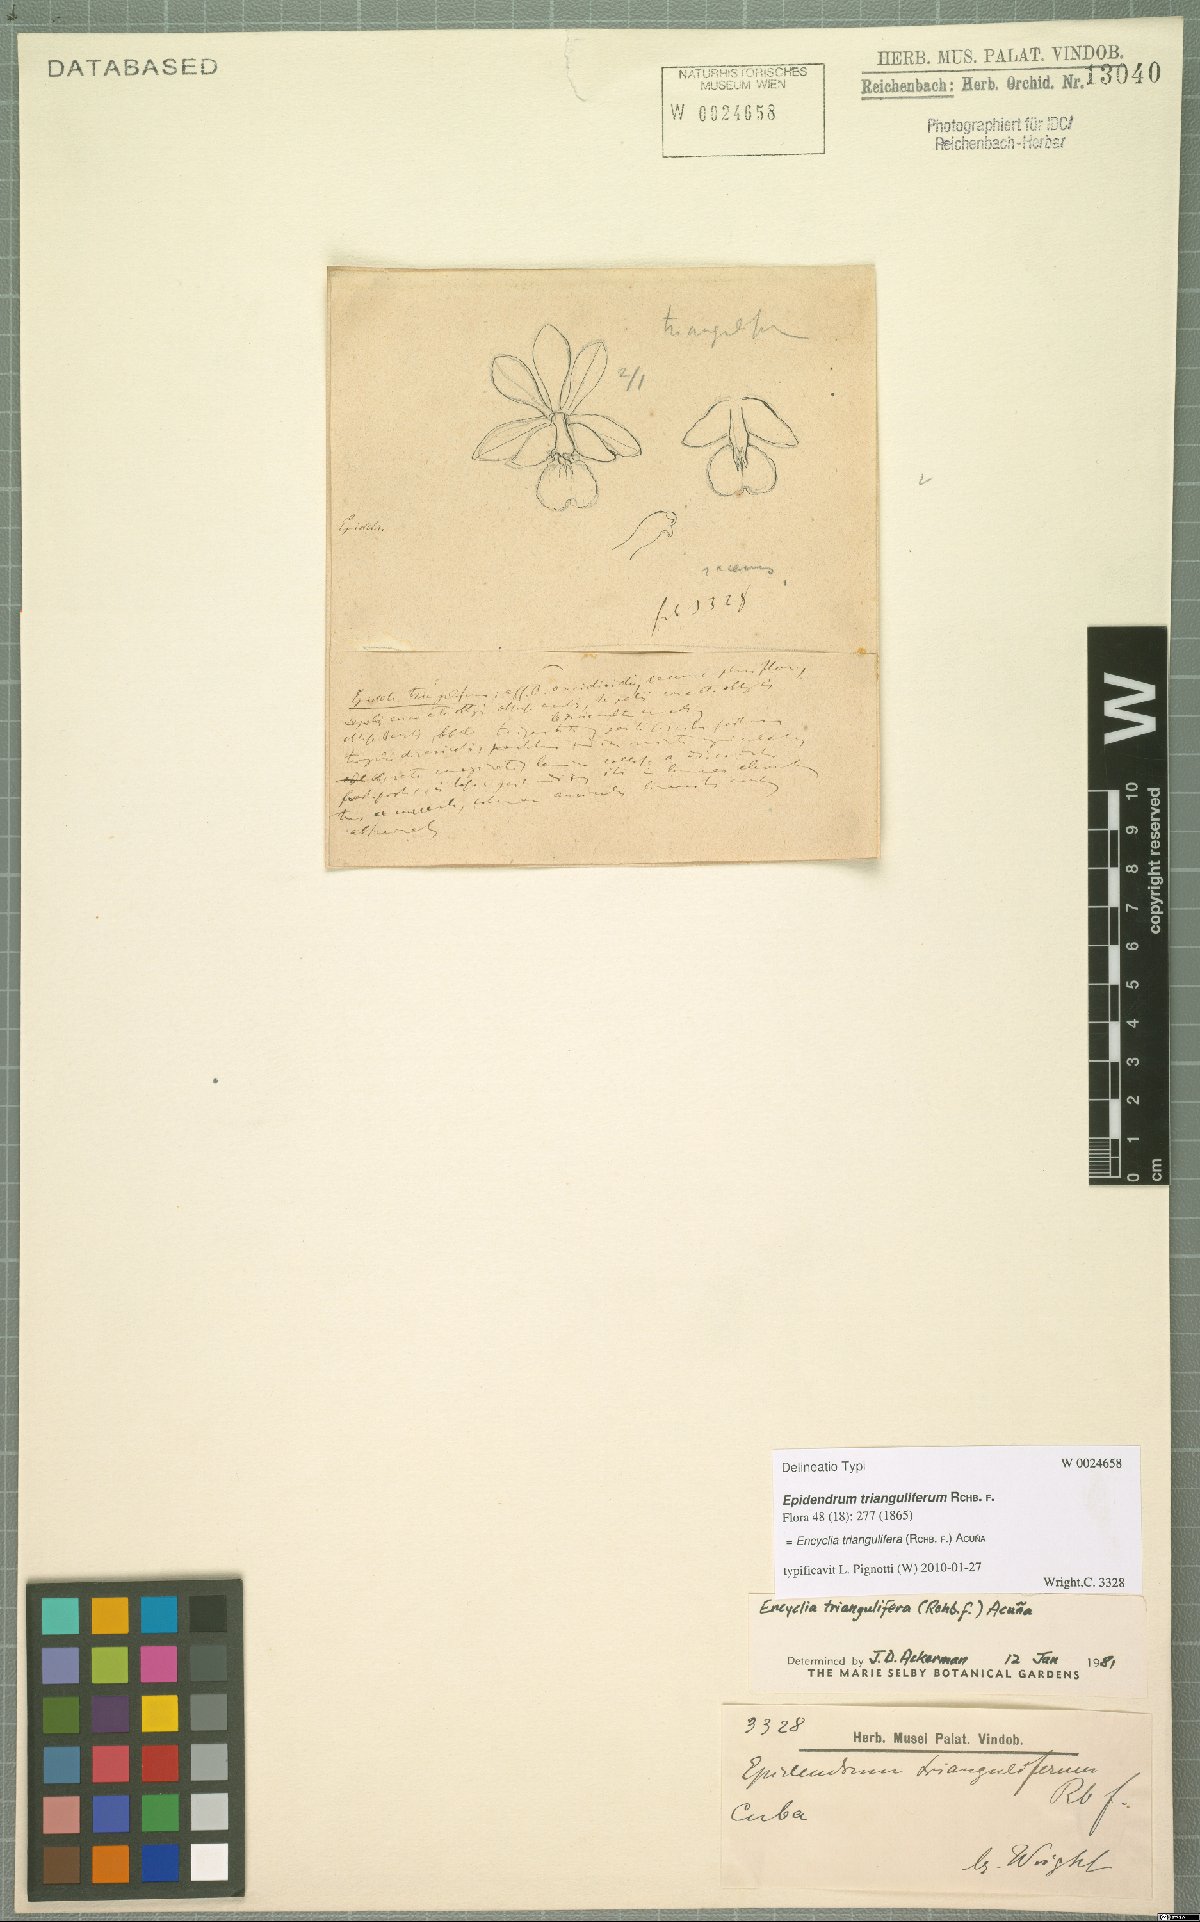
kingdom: Plantae
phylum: Tracheophyta
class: Liliopsida
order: Asparagales
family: Orchidaceae
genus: Encyclia
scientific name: Encyclia triangulifera
